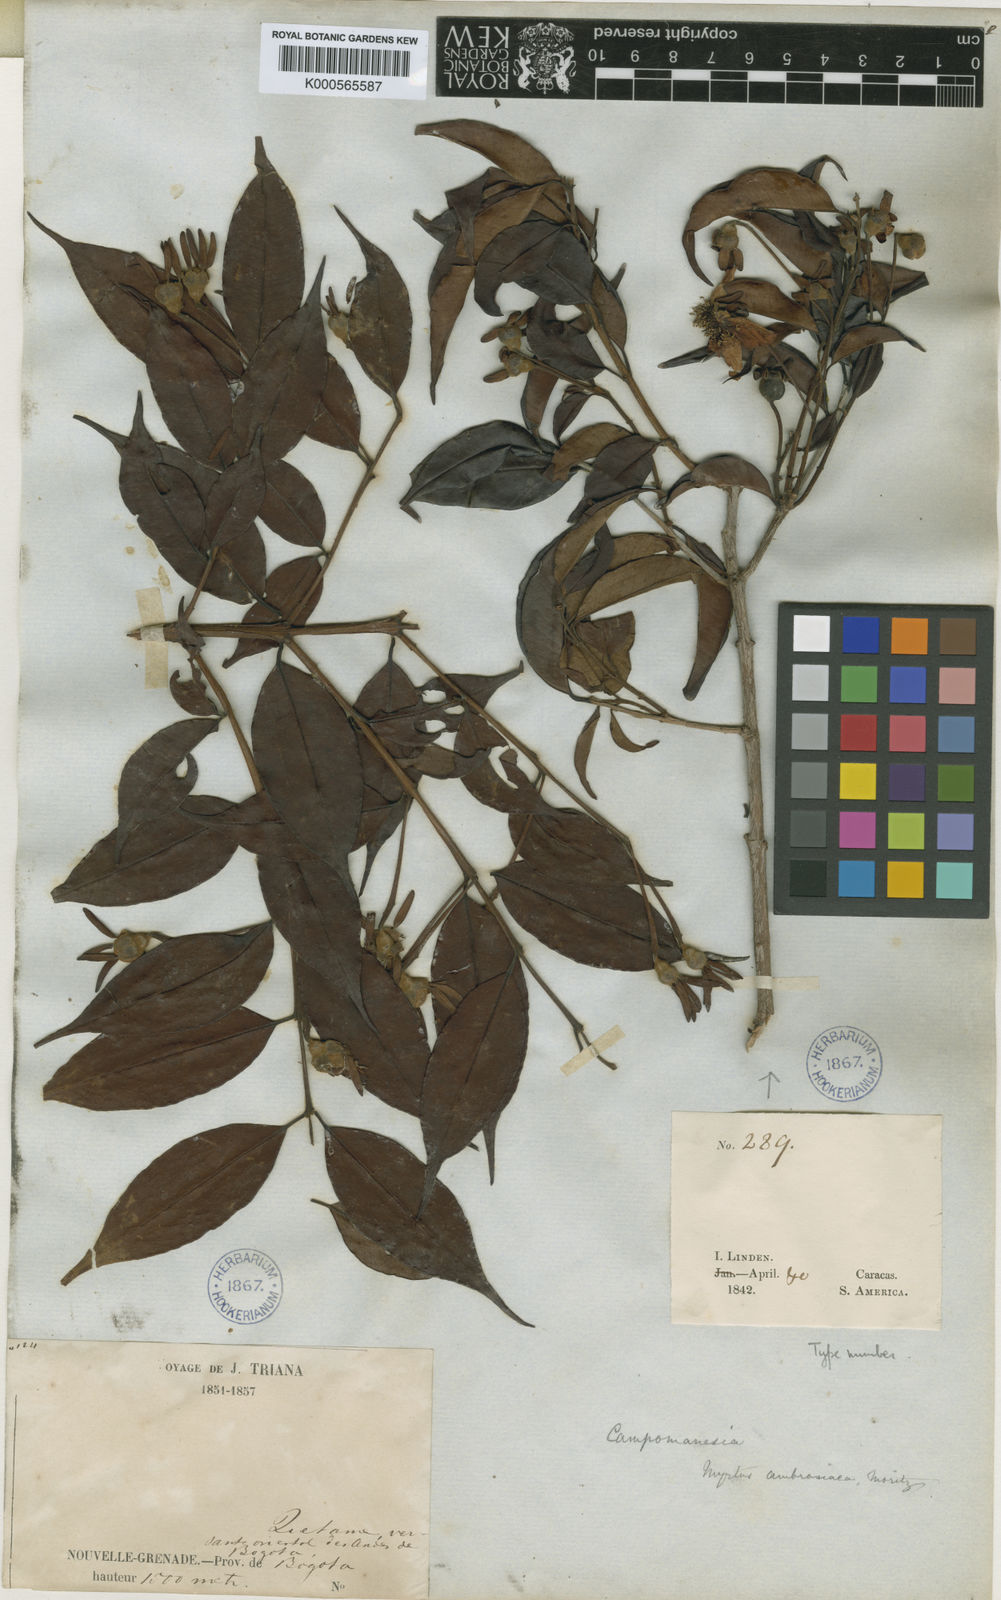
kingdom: Plantae
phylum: Tracheophyta
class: Magnoliopsida
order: Myrtales
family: Myrtaceae
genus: Calycolpus
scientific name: Calycolpus moritzianus
